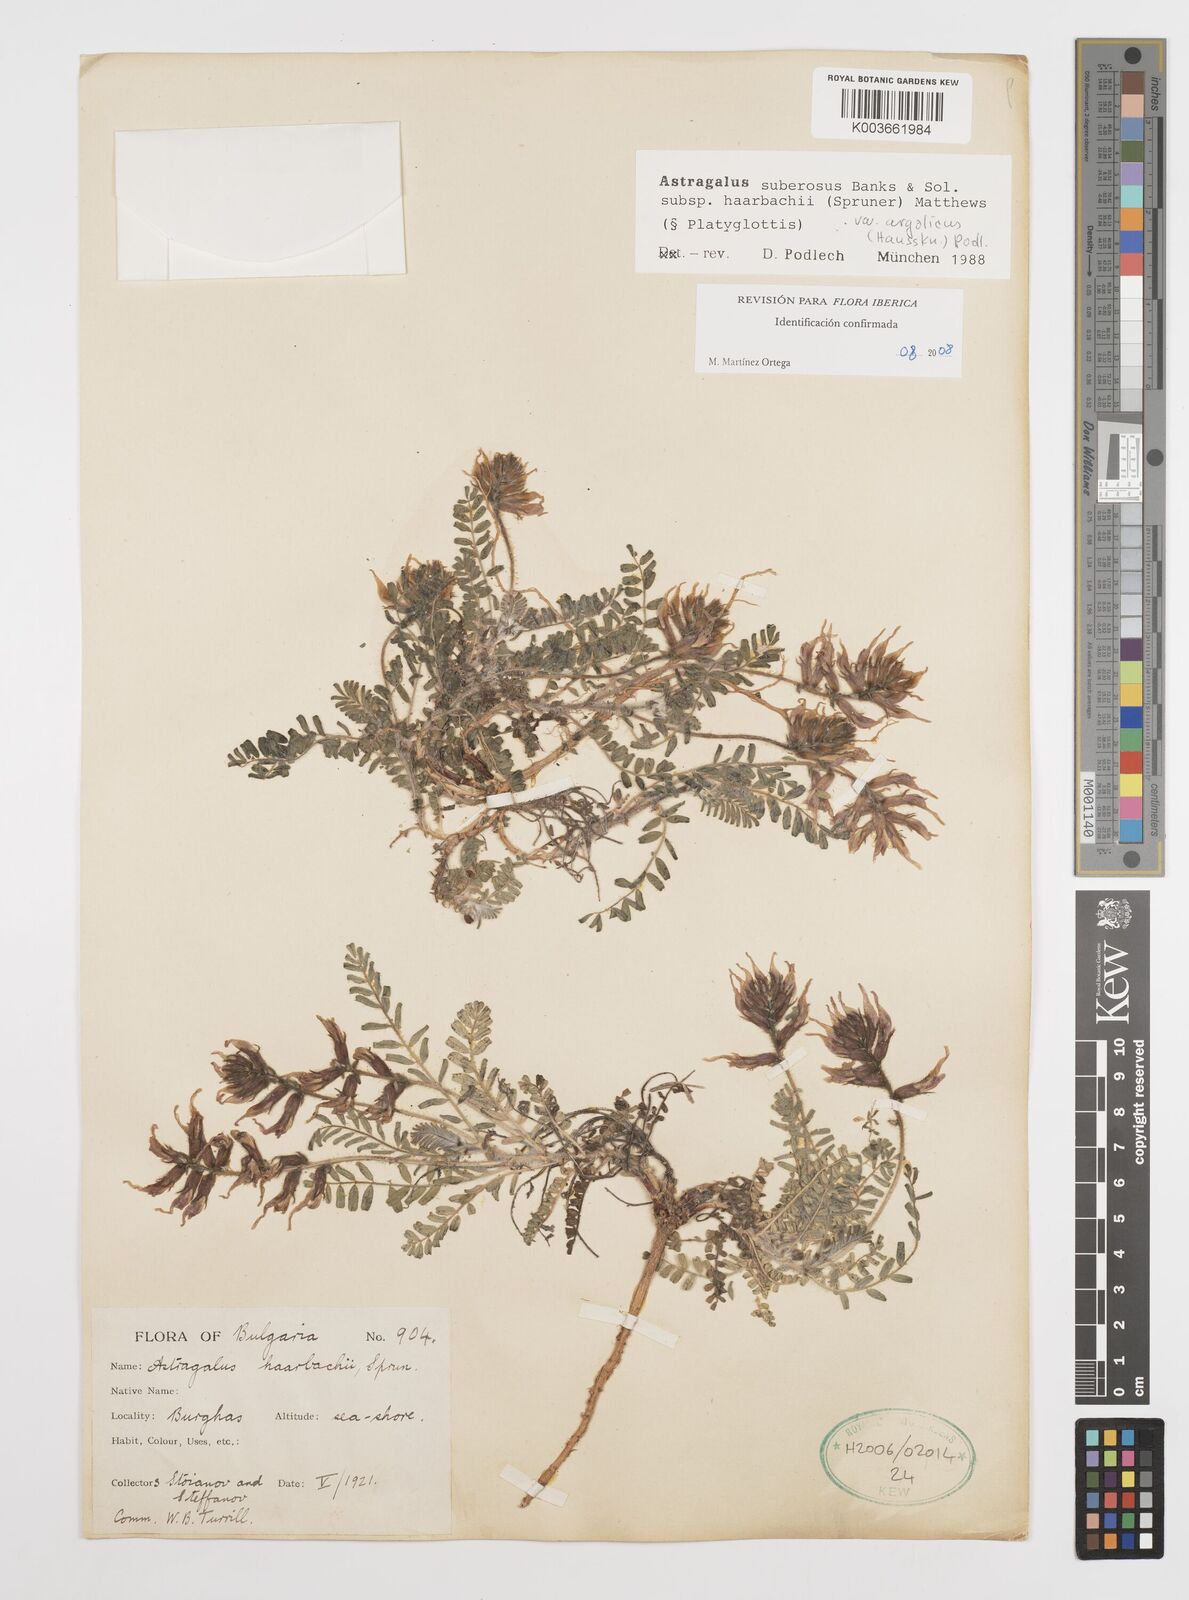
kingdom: Plantae
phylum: Tracheophyta
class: Magnoliopsida
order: Fabales
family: Fabaceae
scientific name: Fabaceae
